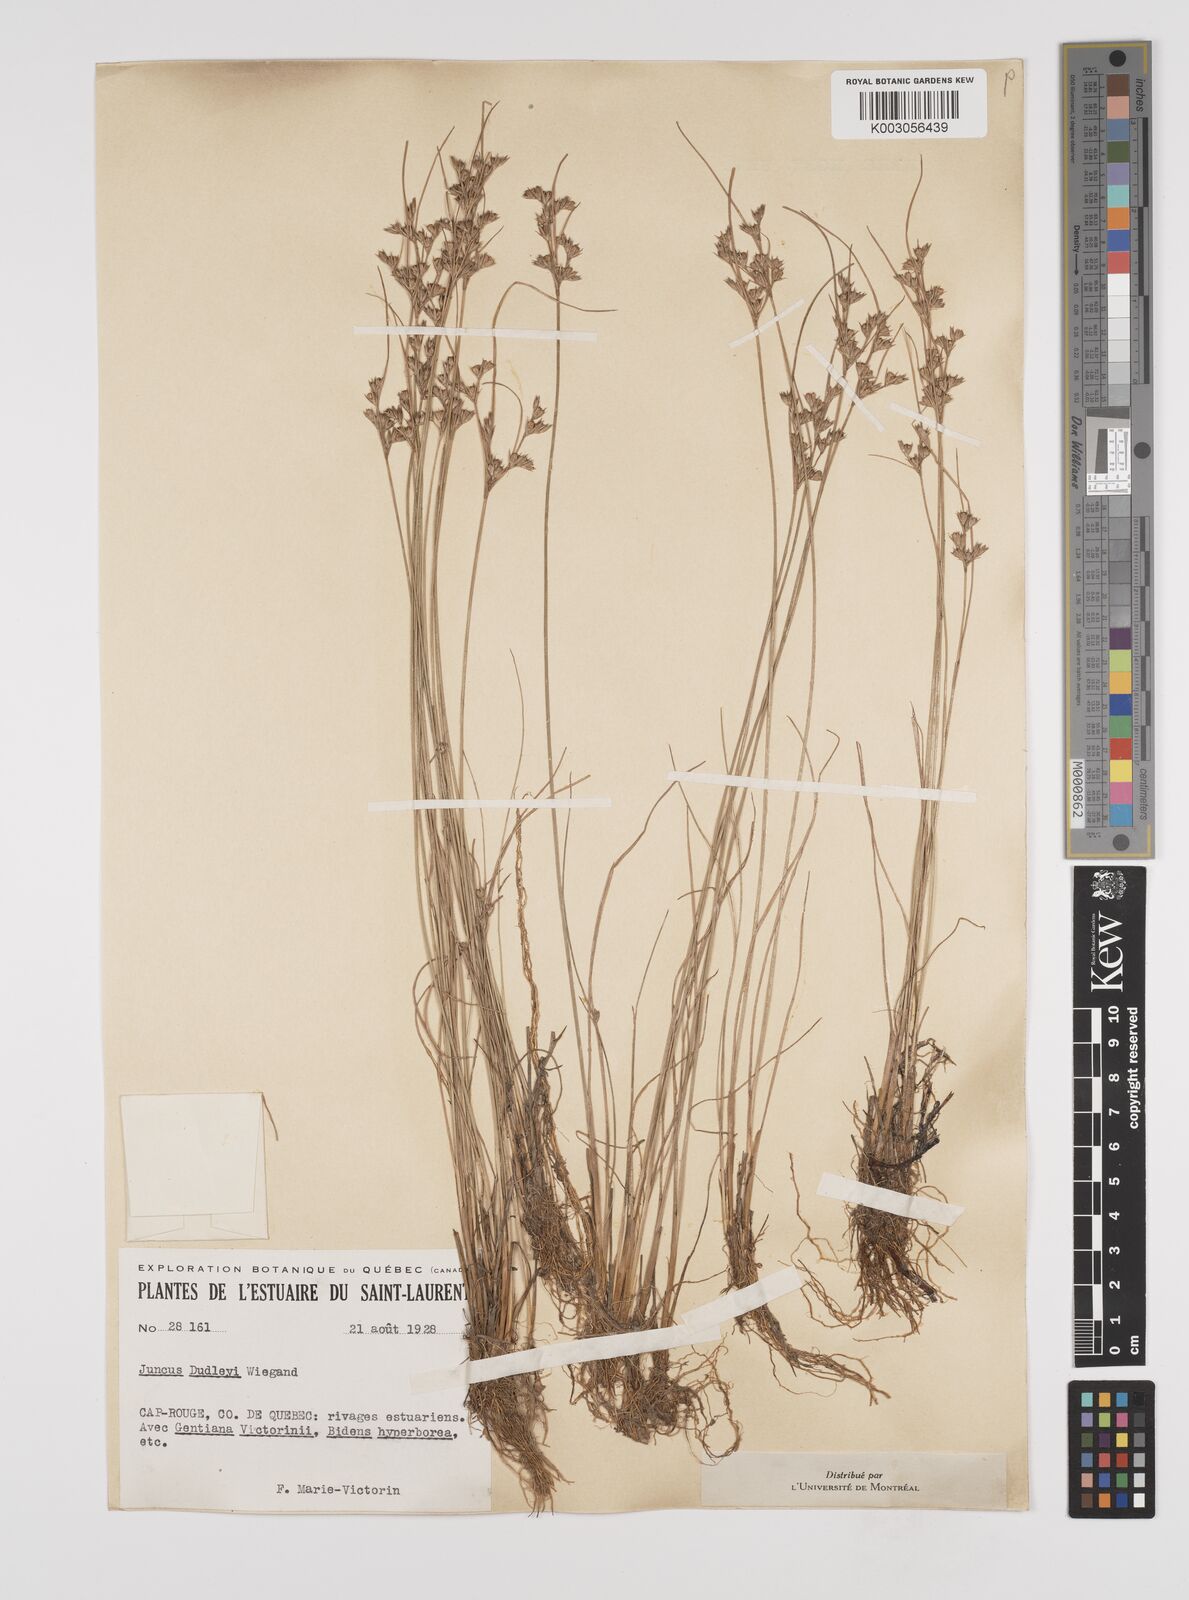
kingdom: Plantae
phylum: Tracheophyta
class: Liliopsida
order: Poales
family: Juncaceae
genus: Juncus
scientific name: Juncus dudleyi
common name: Dudley's rush
